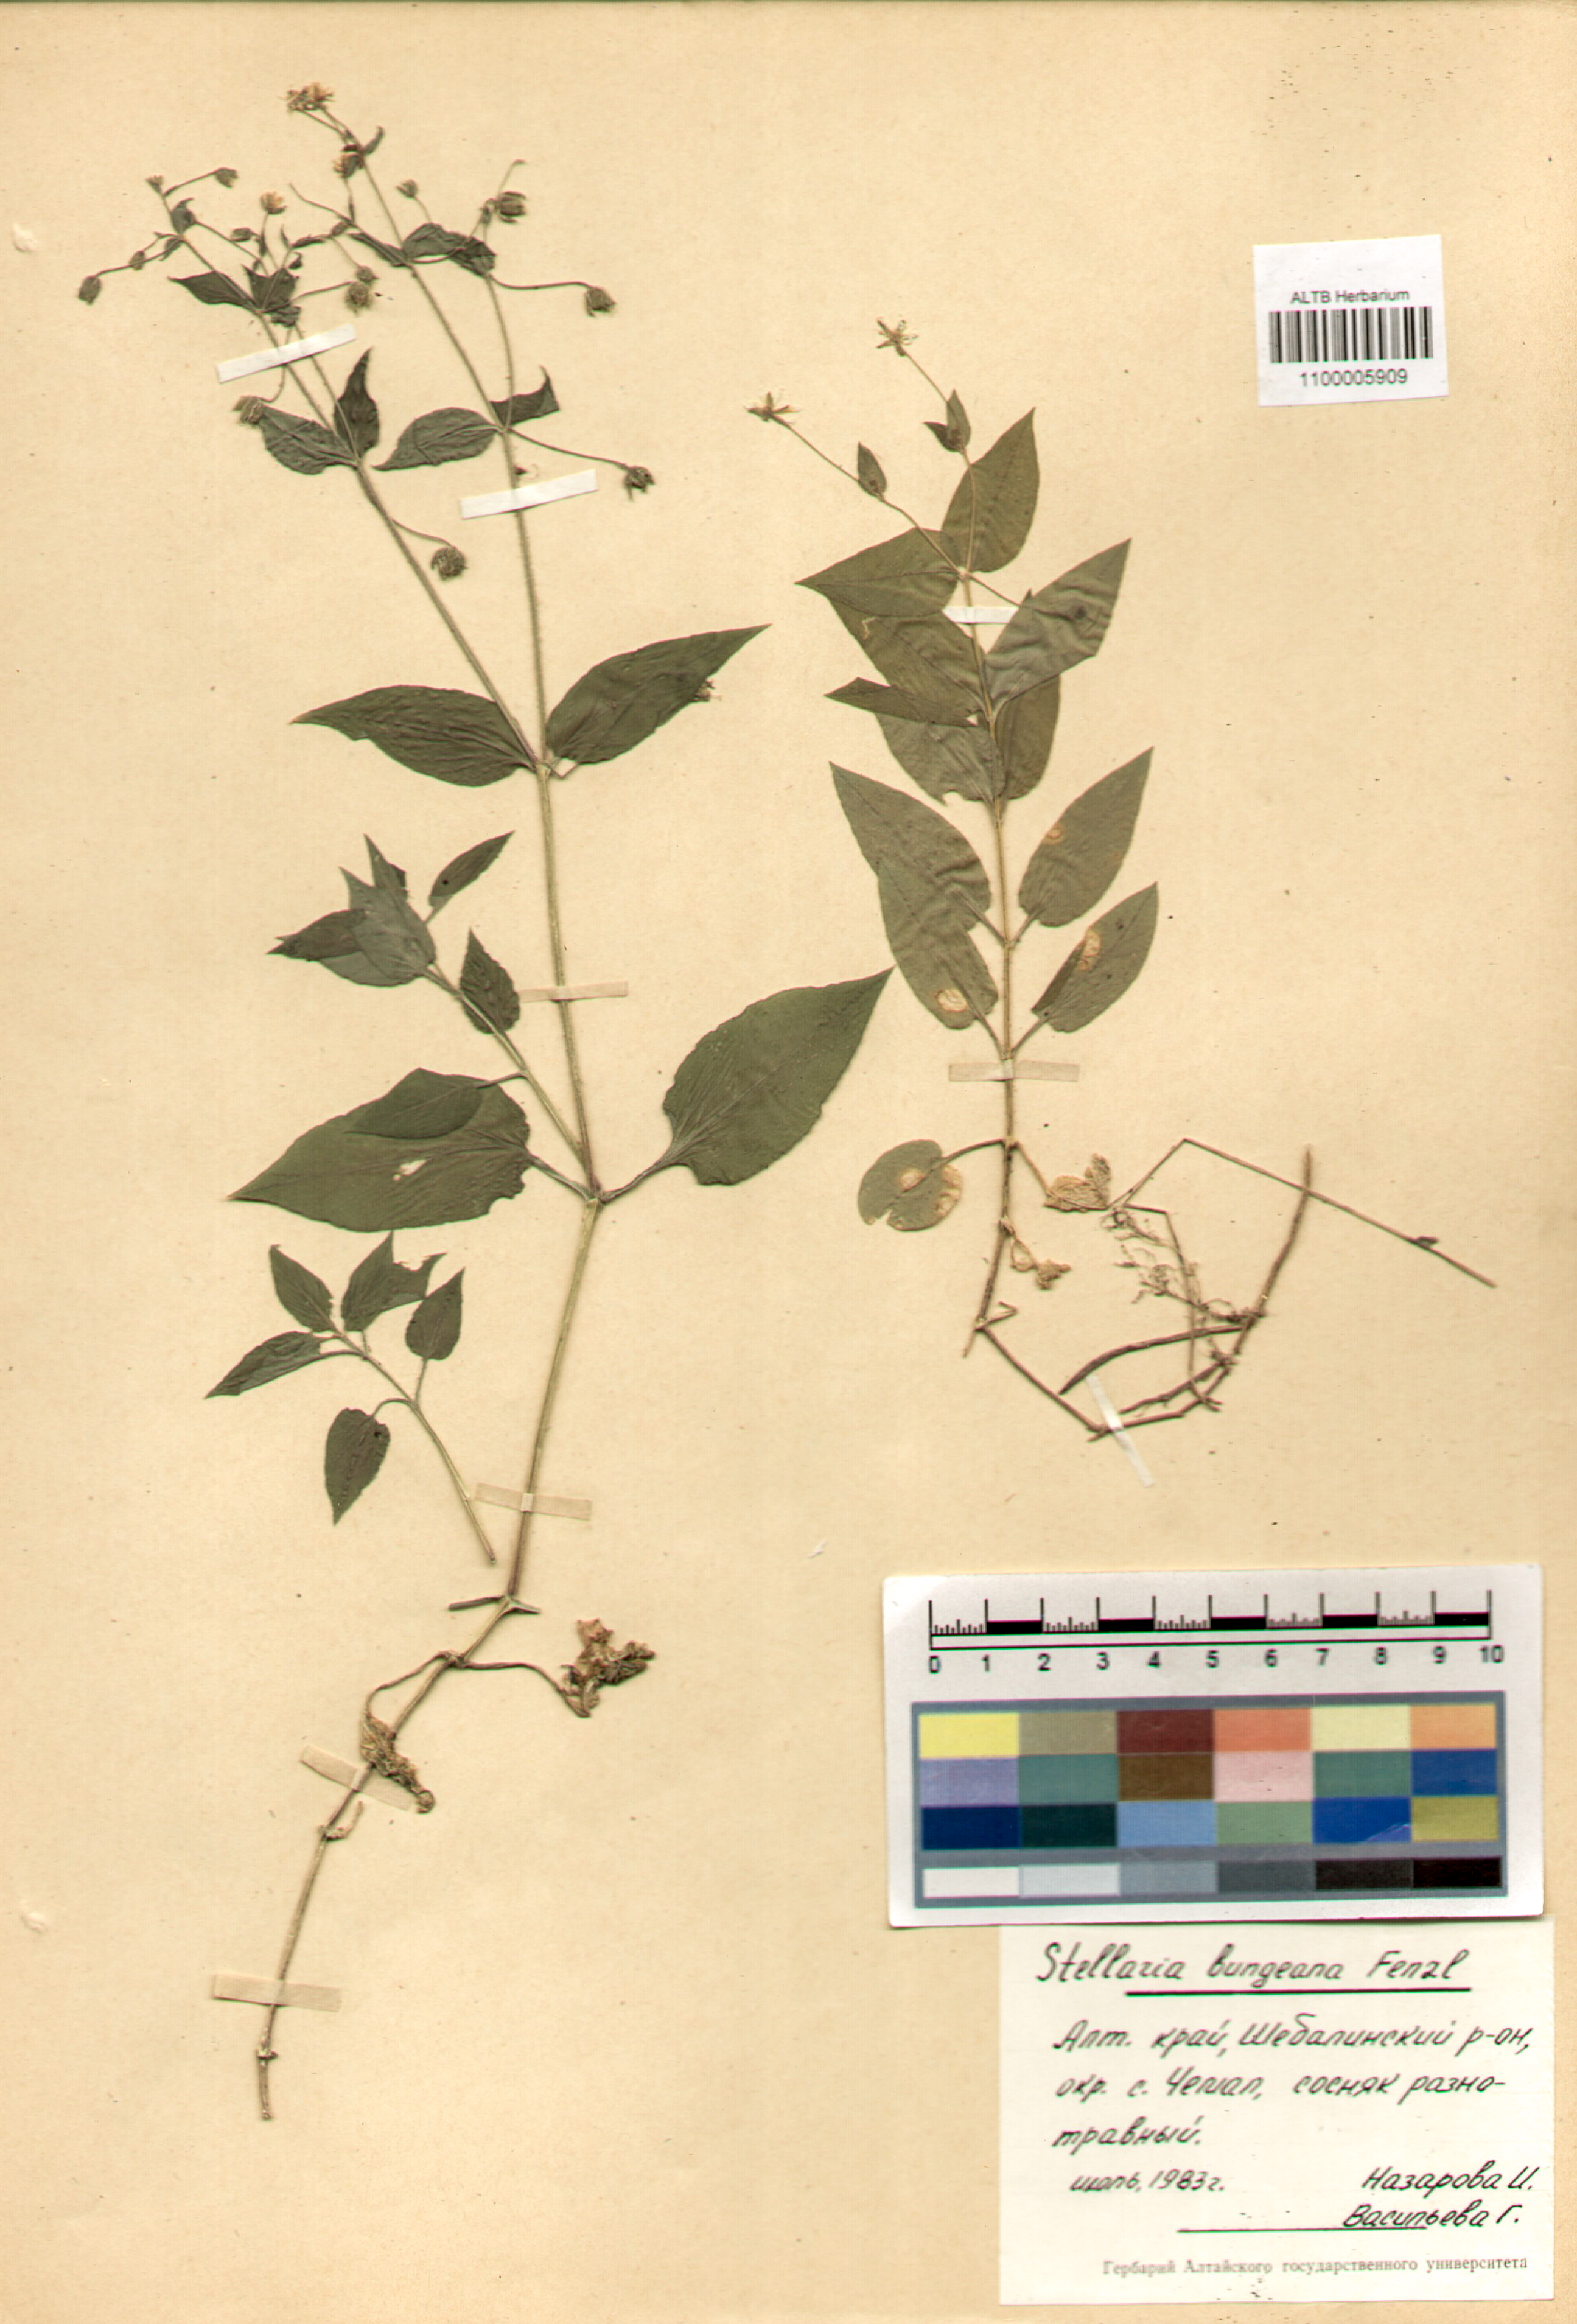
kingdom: Plantae
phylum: Tracheophyta
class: Magnoliopsida
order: Caryophyllales
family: Caryophyllaceae
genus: Stellaria
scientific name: Stellaria bungeana
